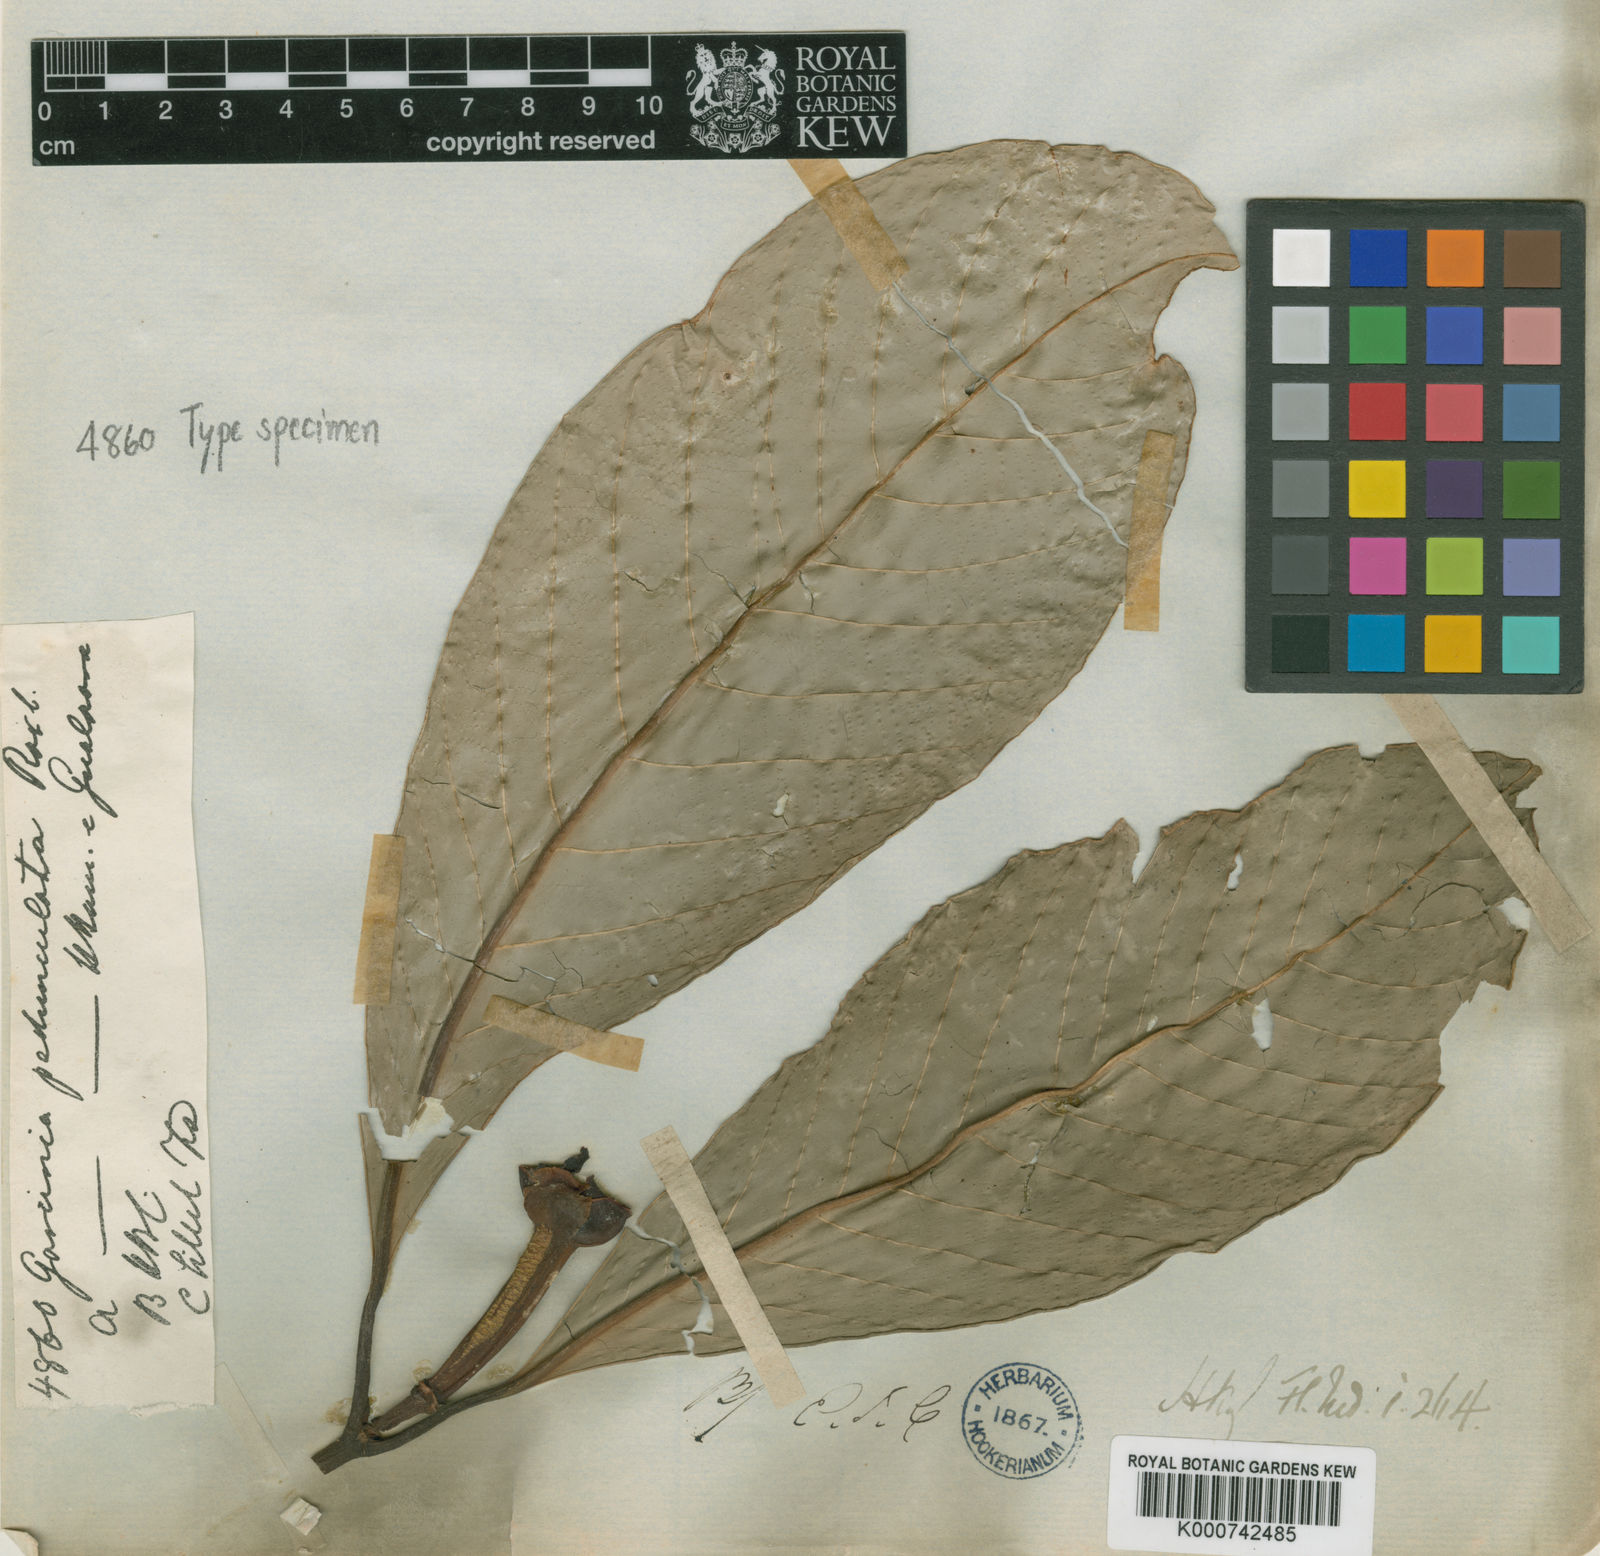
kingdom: Plantae
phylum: Tracheophyta
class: Magnoliopsida
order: Malpighiales
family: Clusiaceae
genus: Garcinia
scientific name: Garcinia
